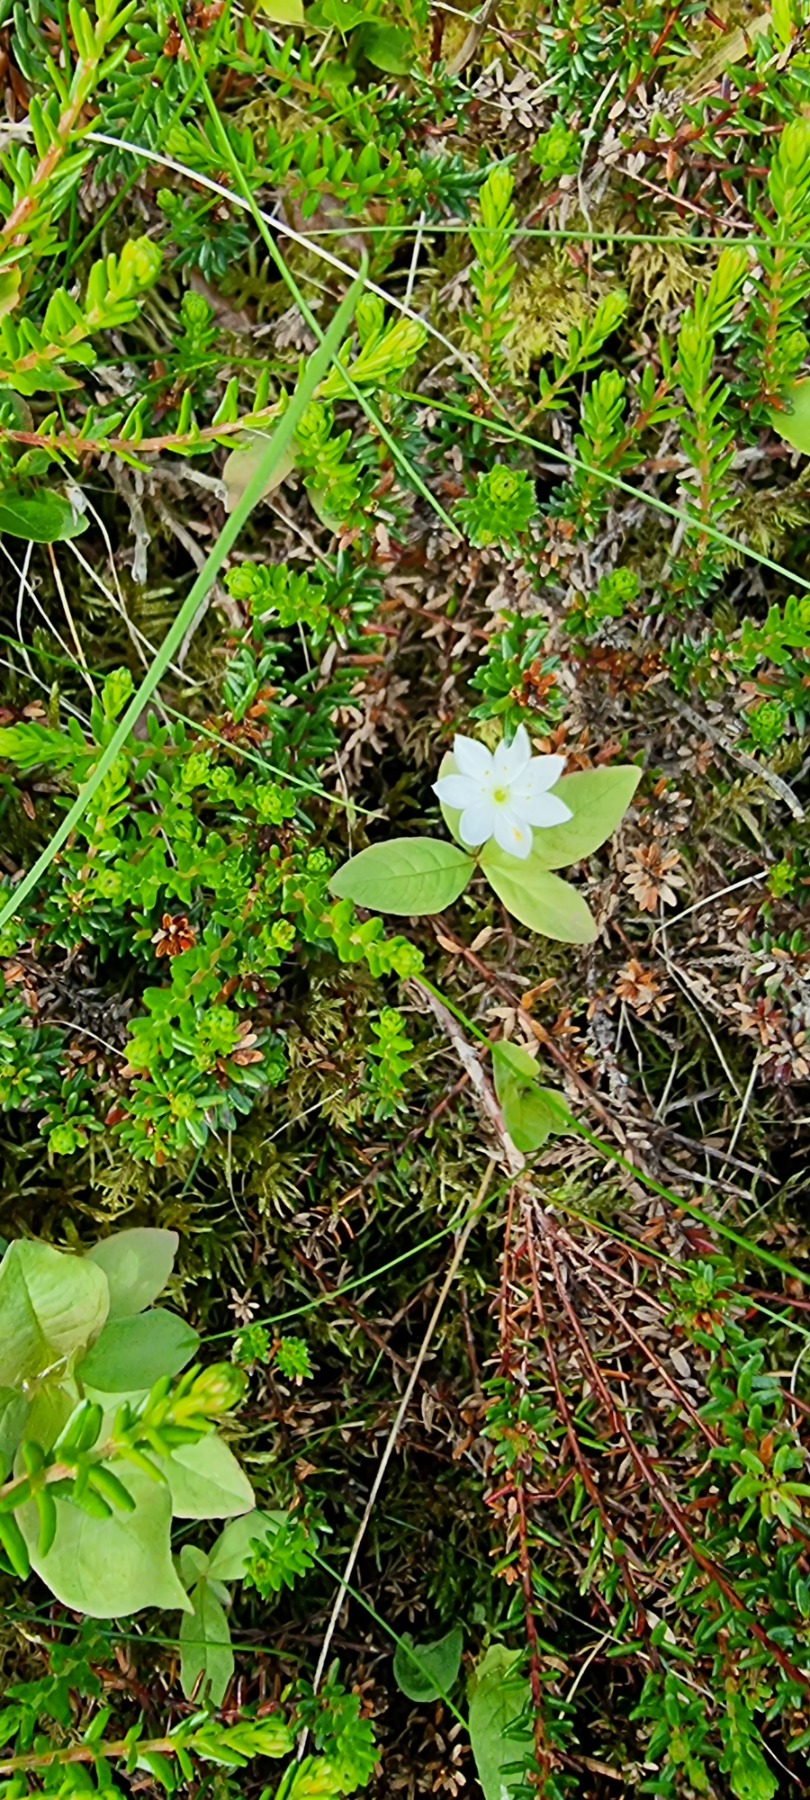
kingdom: Plantae
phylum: Tracheophyta
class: Magnoliopsida
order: Ericales
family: Primulaceae
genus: Lysimachia
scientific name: Lysimachia europaea
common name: Skovstjerne
